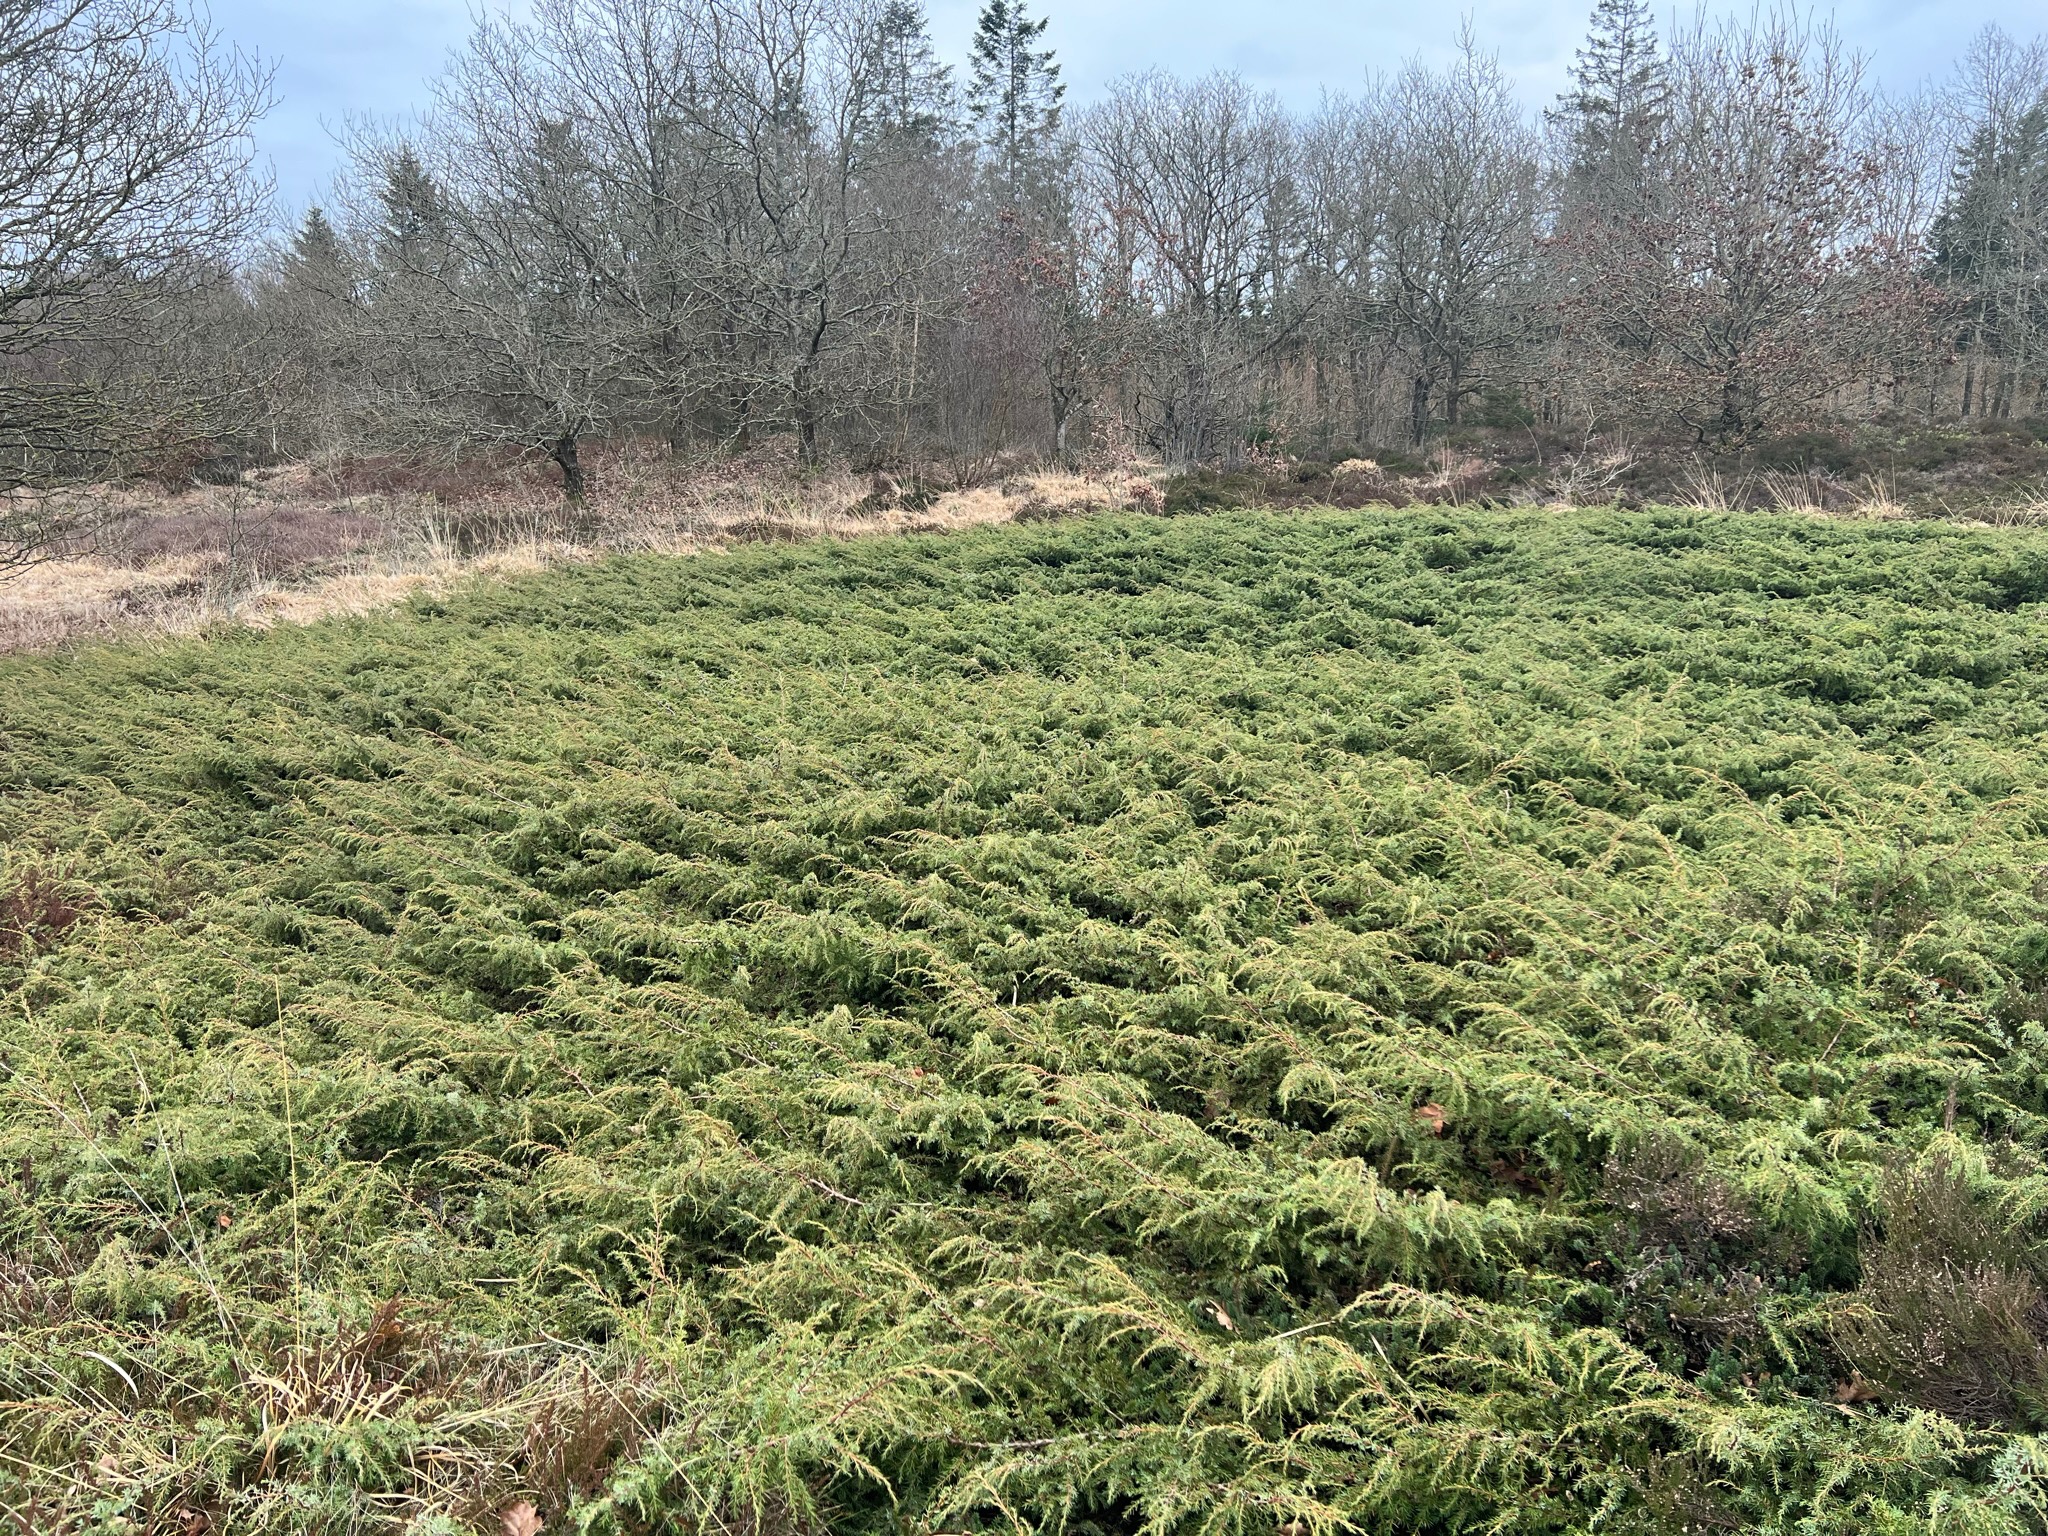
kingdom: Plantae
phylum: Tracheophyta
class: Pinopsida
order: Pinales
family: Cupressaceae
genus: Juniperus
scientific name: Juniperus communis
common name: Almindelig ene
